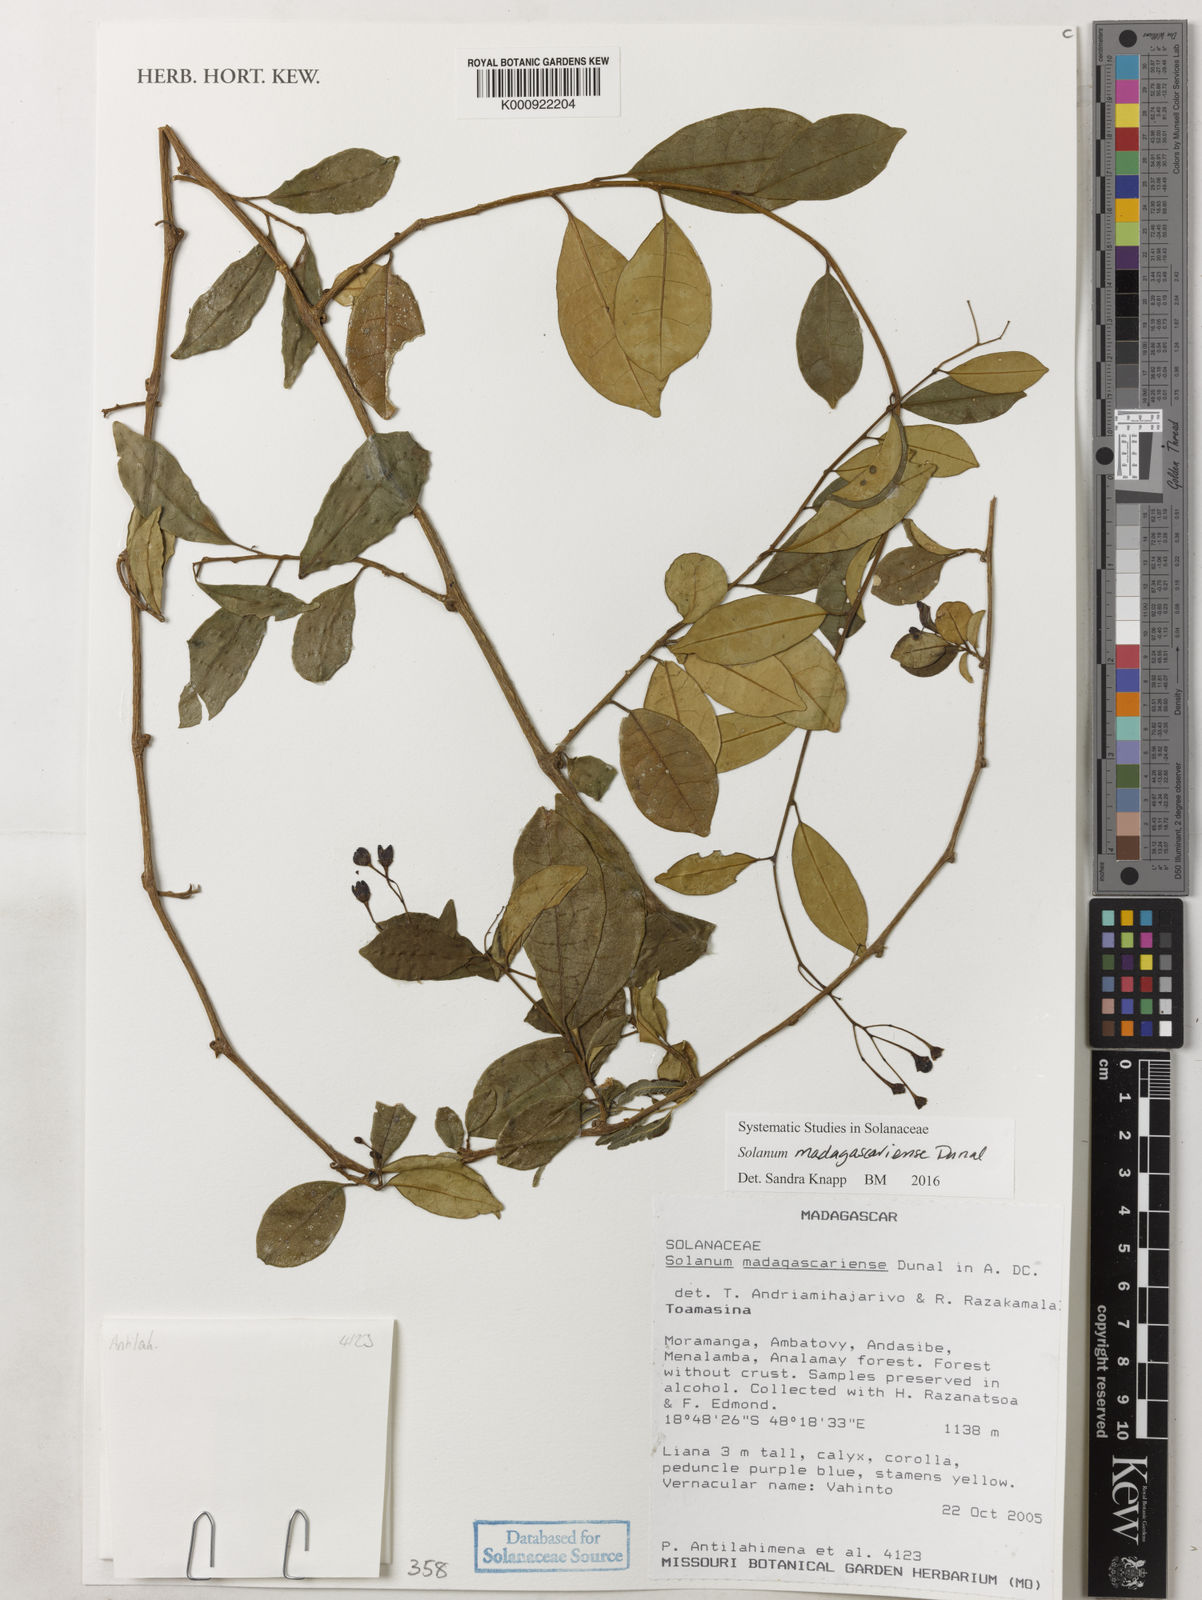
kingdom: Plantae
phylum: Tracheophyta
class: Magnoliopsida
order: Solanales
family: Solanaceae
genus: Solanum
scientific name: Solanum madagascariense
